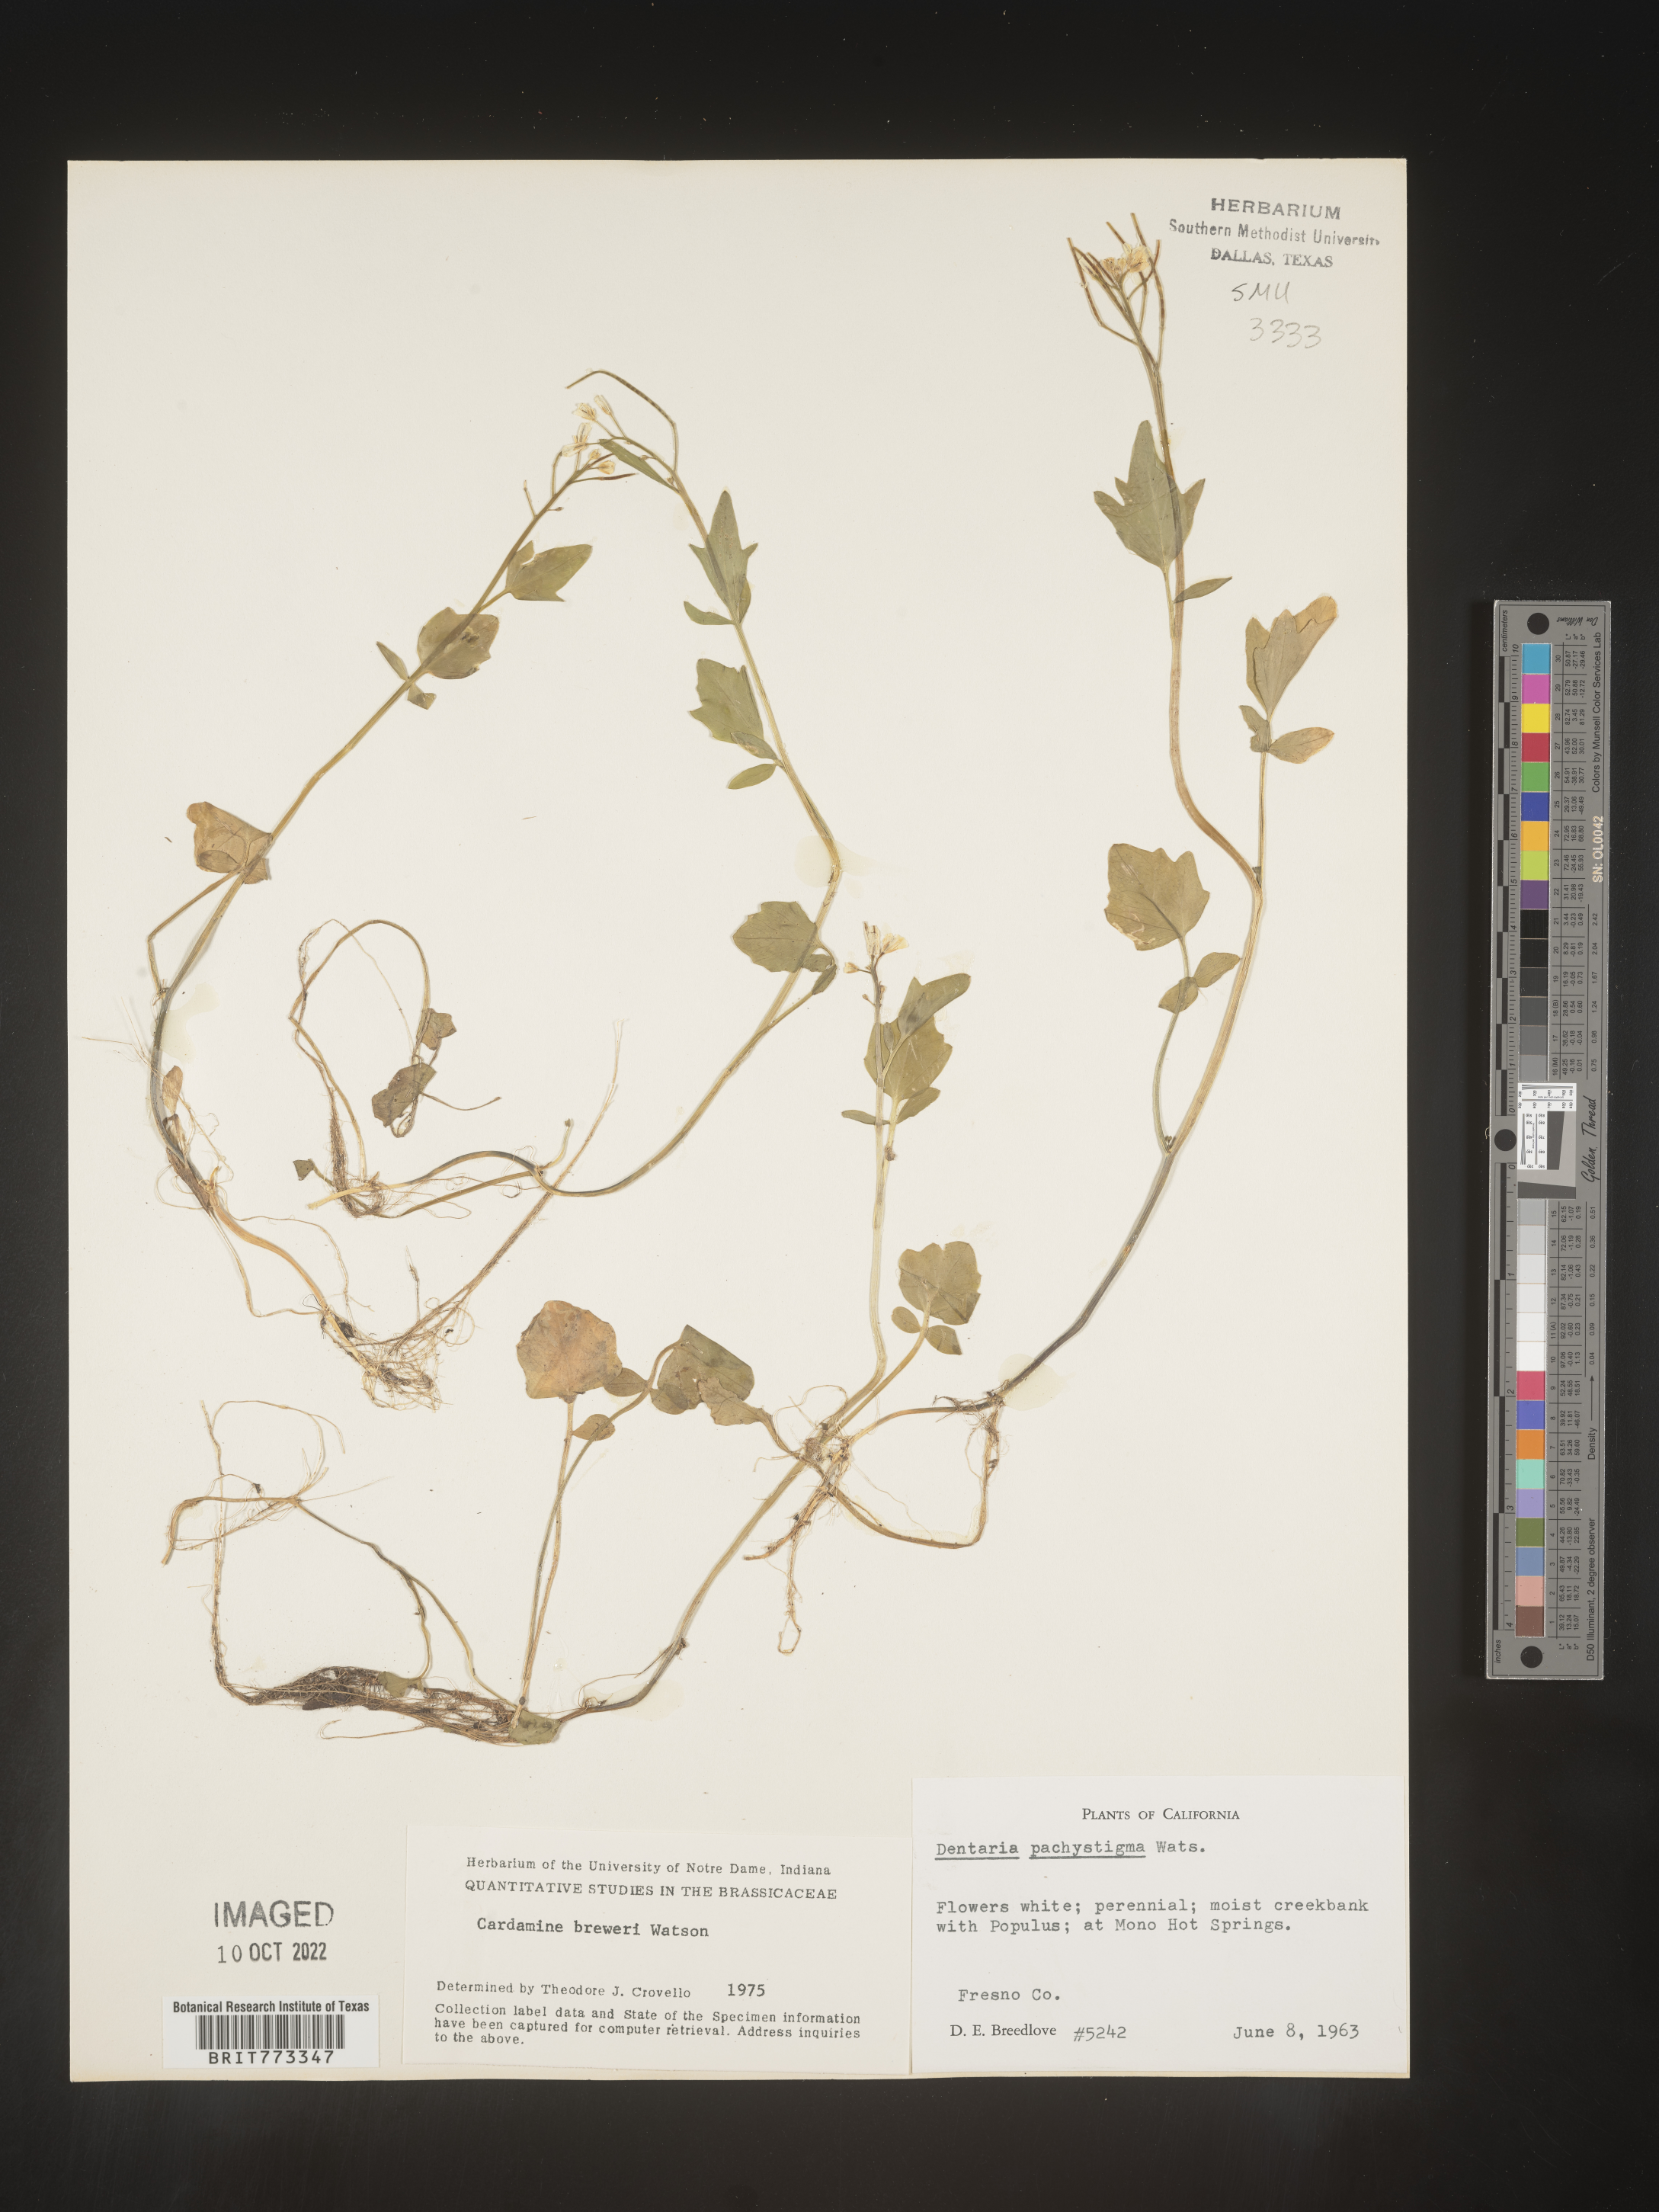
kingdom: Plantae
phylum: Tracheophyta
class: Magnoliopsida
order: Brassicales
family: Brassicaceae
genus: Cardamine
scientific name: Cardamine
